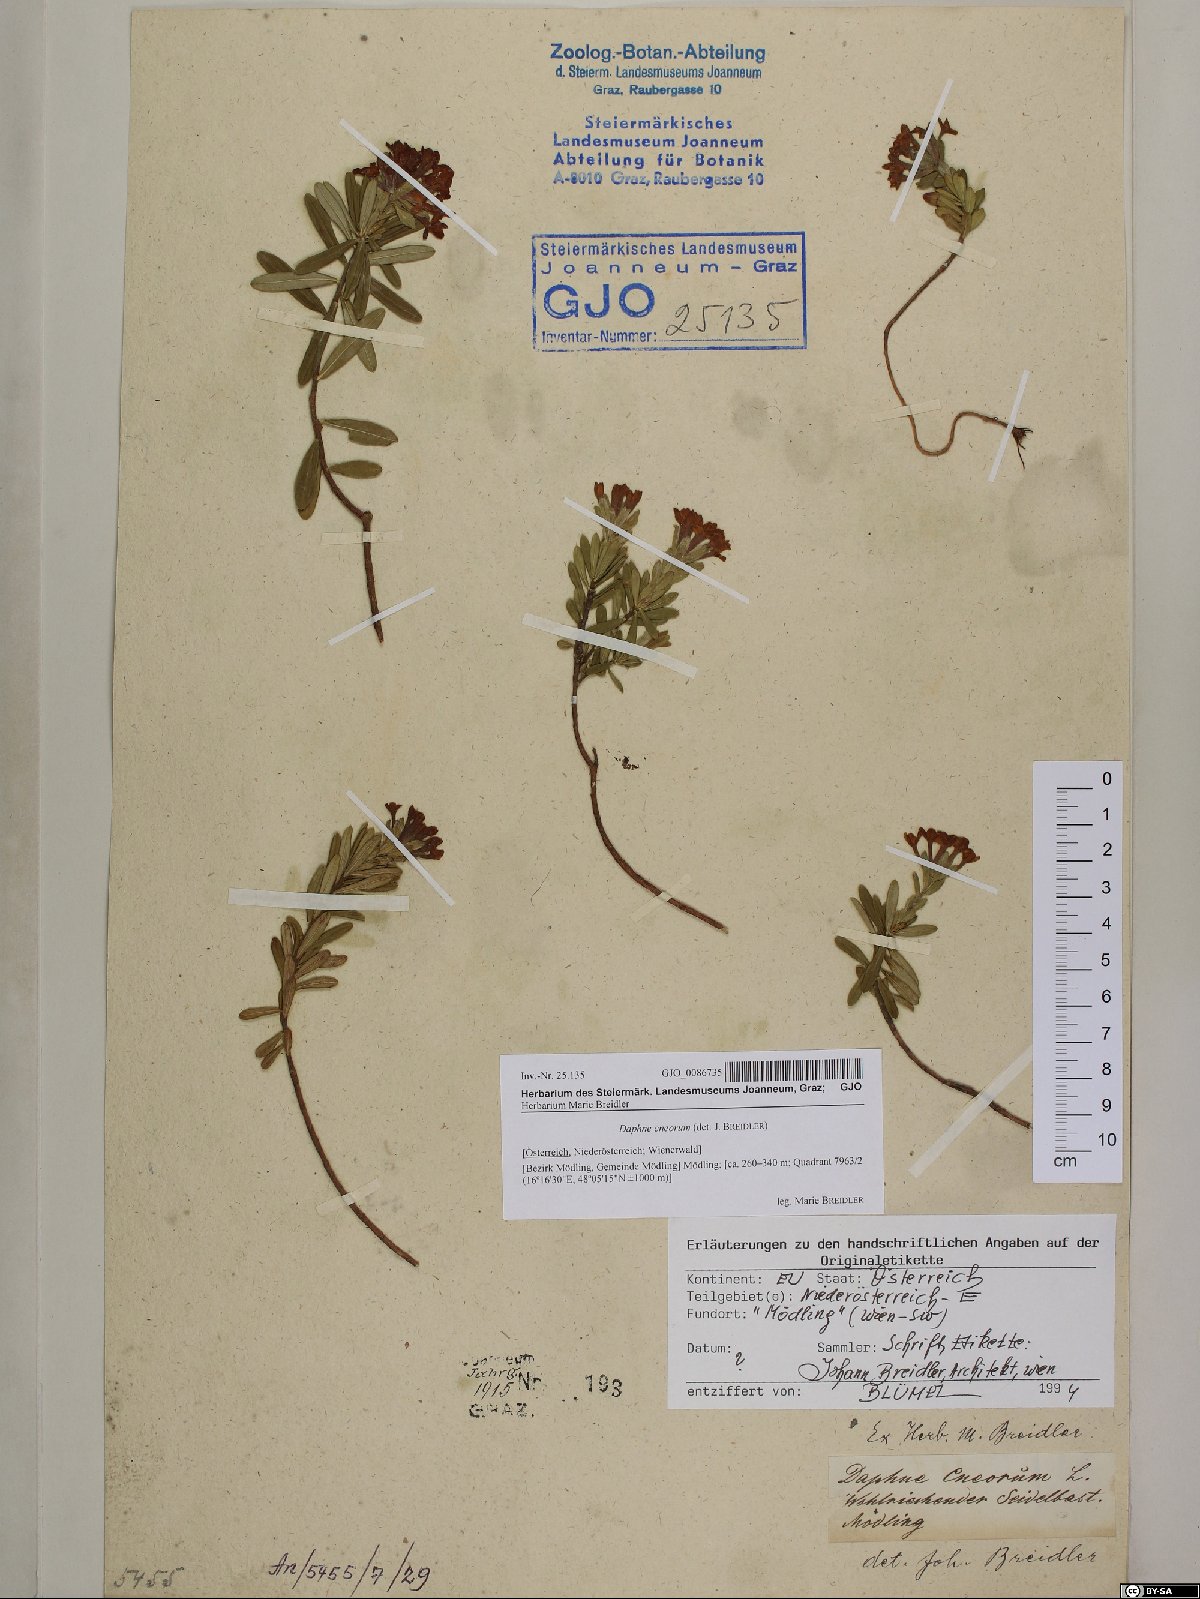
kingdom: Plantae
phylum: Tracheophyta
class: Magnoliopsida
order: Malvales
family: Thymelaeaceae
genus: Daphne
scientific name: Daphne cneorum
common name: Garland-flower
